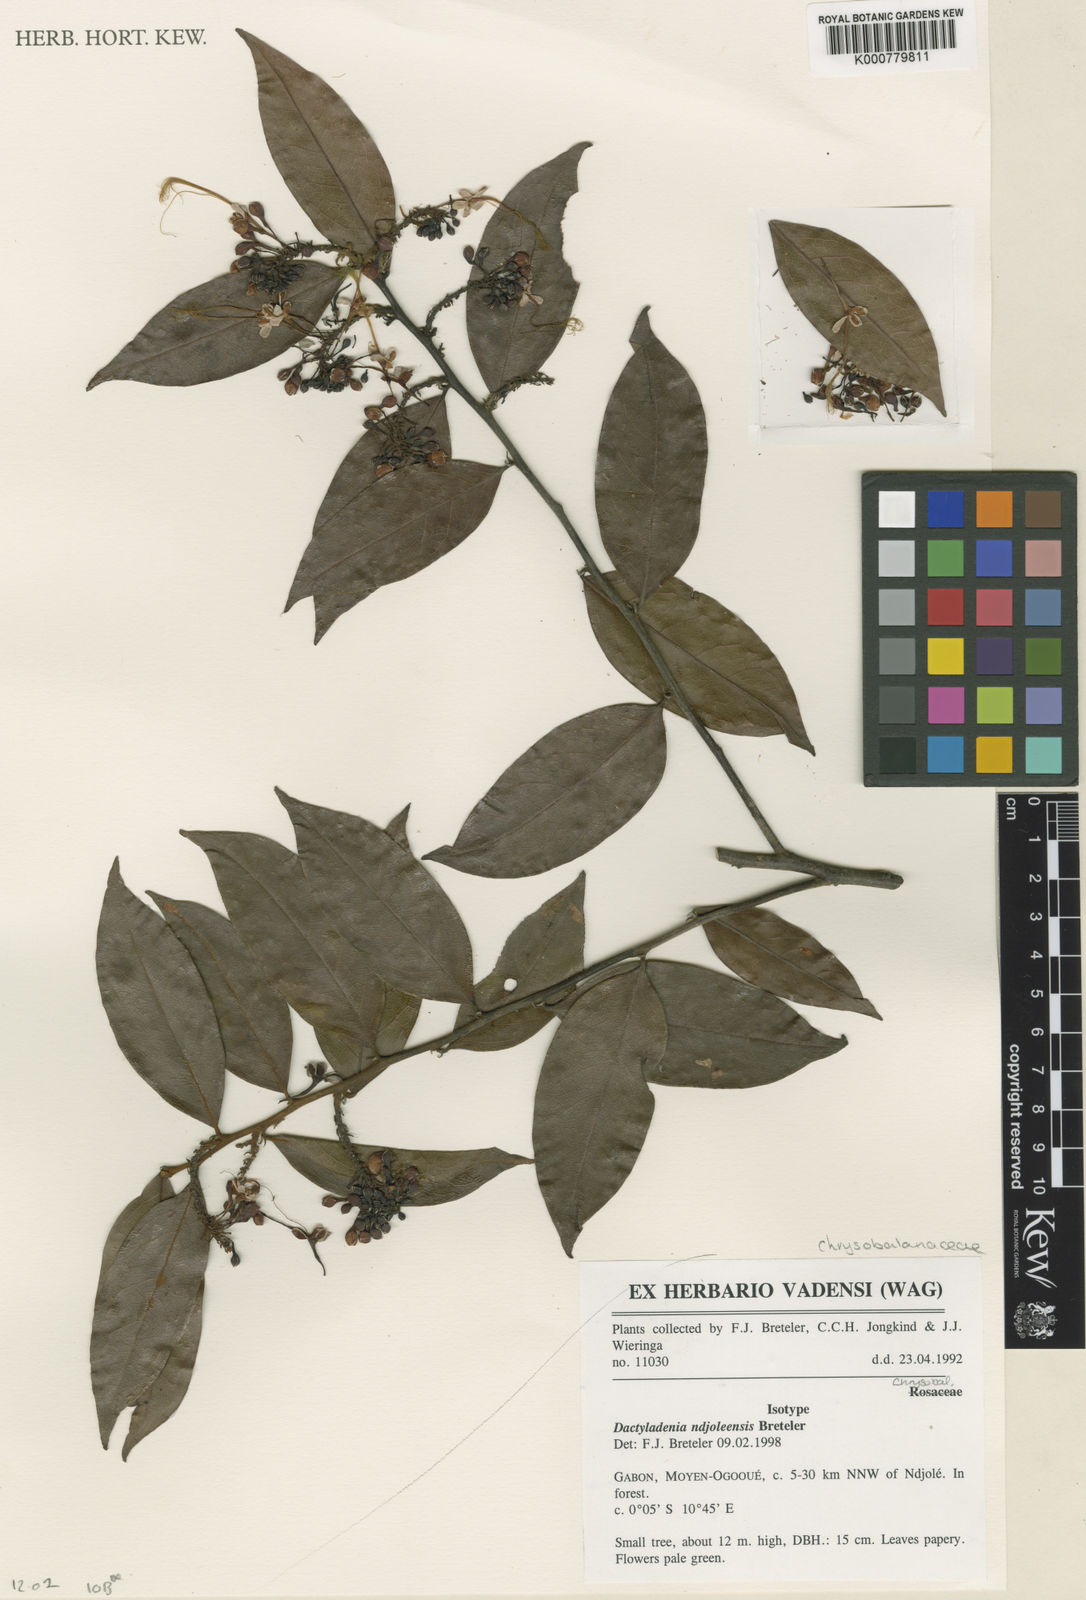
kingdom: Plantae
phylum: Tracheophyta
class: Magnoliopsida
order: Malpighiales
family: Chrysobalanaceae
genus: Dactyladenia
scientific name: Dactyladenia ndjoleensis
